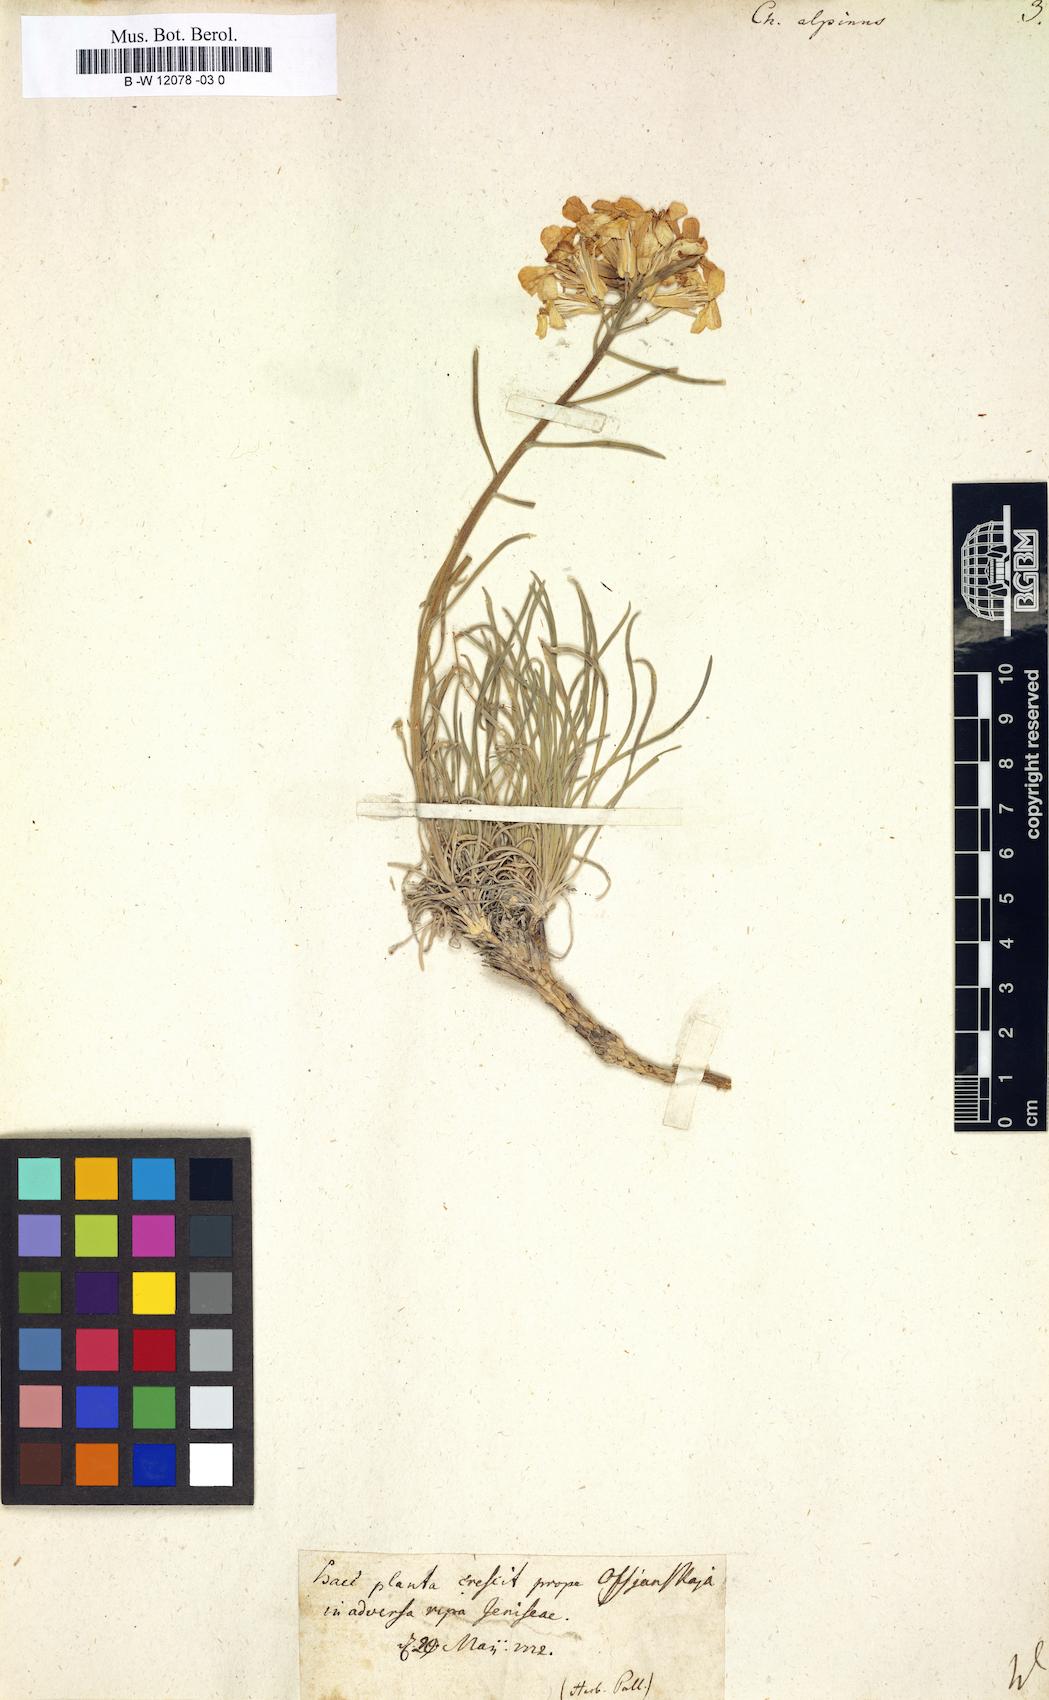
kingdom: Plantae
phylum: Tracheophyta
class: Magnoliopsida
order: Brassicales
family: Brassicaceae
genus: Erysimum
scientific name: Erysimum
